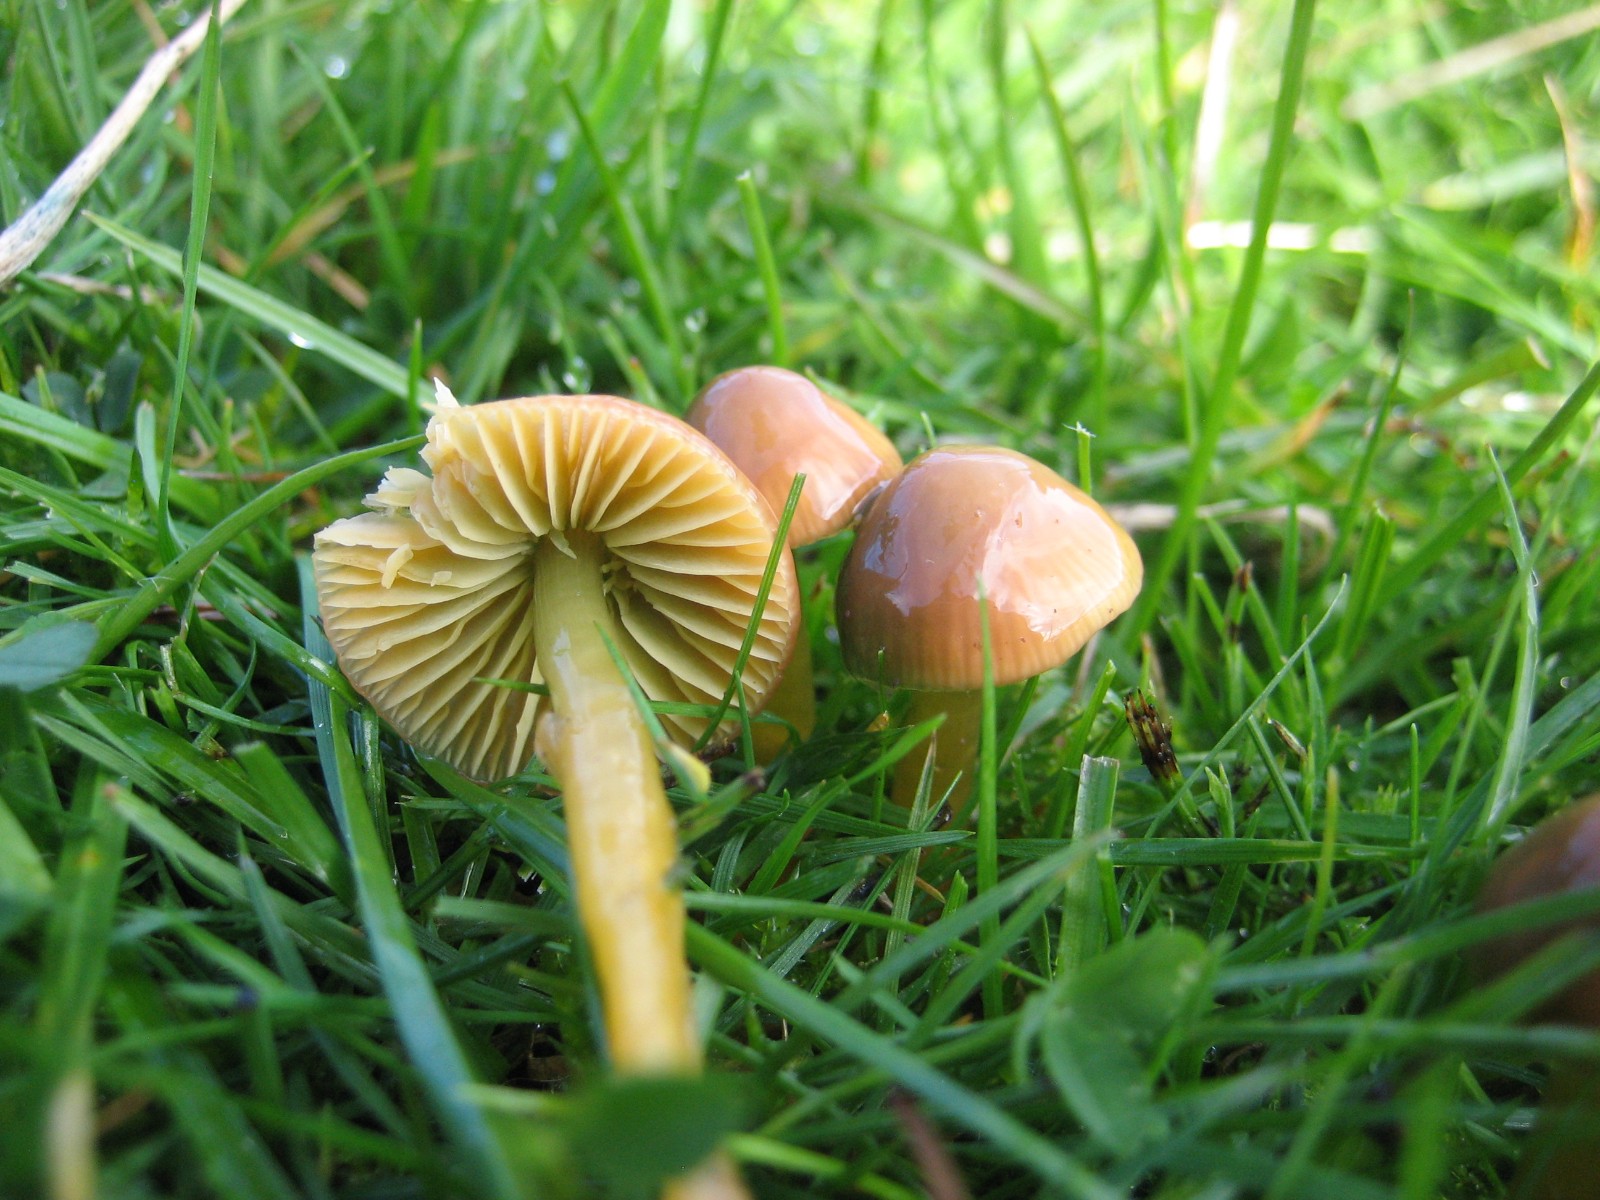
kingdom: Fungi
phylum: Basidiomycota
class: Agaricomycetes
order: Agaricales
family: Hygrophoraceae
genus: Gliophorus
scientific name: Gliophorus psittacinus
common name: papegøje-vokshat
